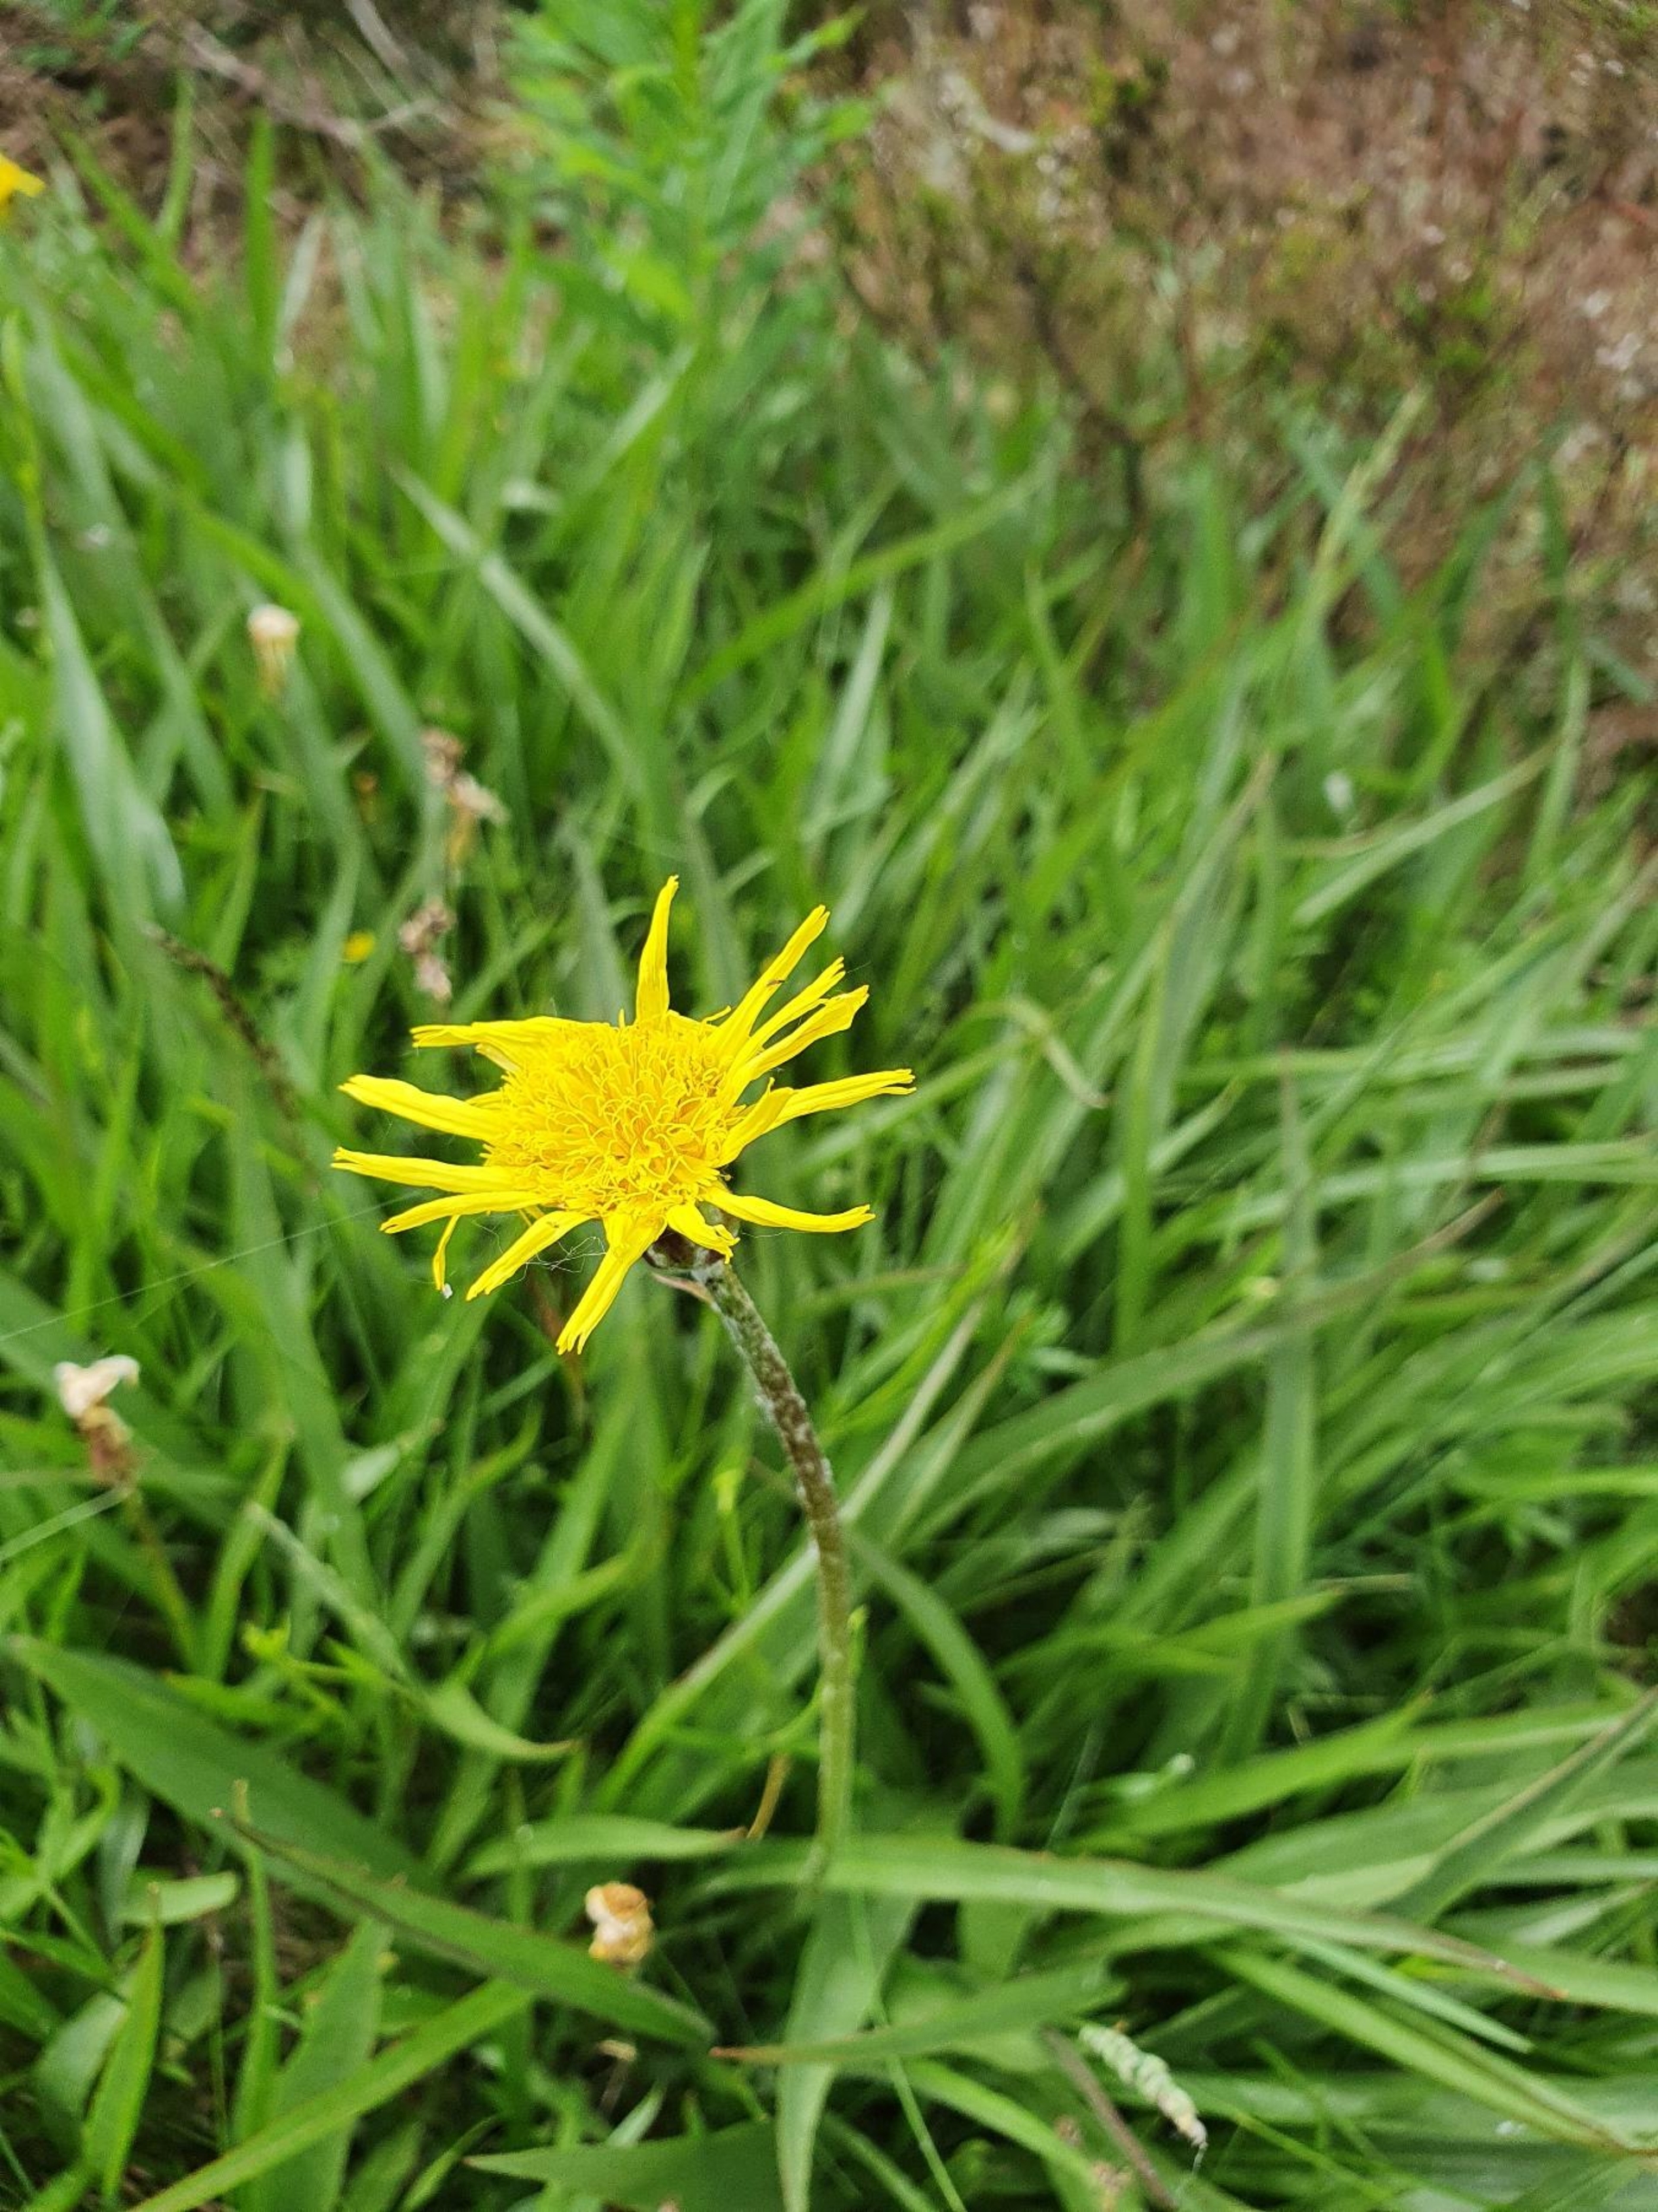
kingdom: Plantae
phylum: Tracheophyta
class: Magnoliopsida
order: Asterales
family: Asteraceae
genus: Scorzonera
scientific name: Scorzonera humilis
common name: Lav skorsoner
